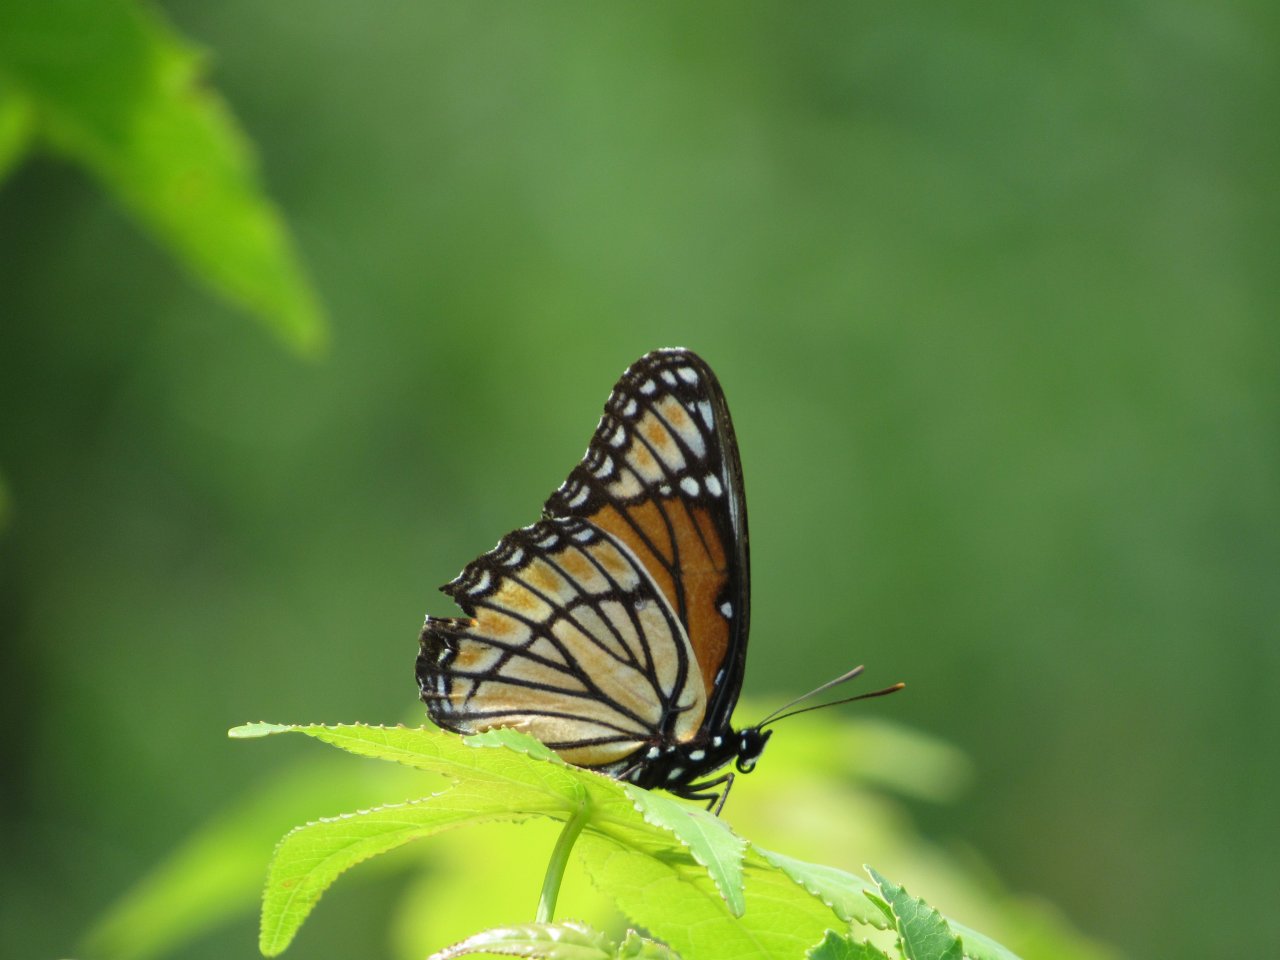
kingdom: Animalia
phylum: Arthropoda
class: Insecta
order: Lepidoptera
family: Nymphalidae
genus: Limenitis
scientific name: Limenitis archippus
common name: Viceroy
